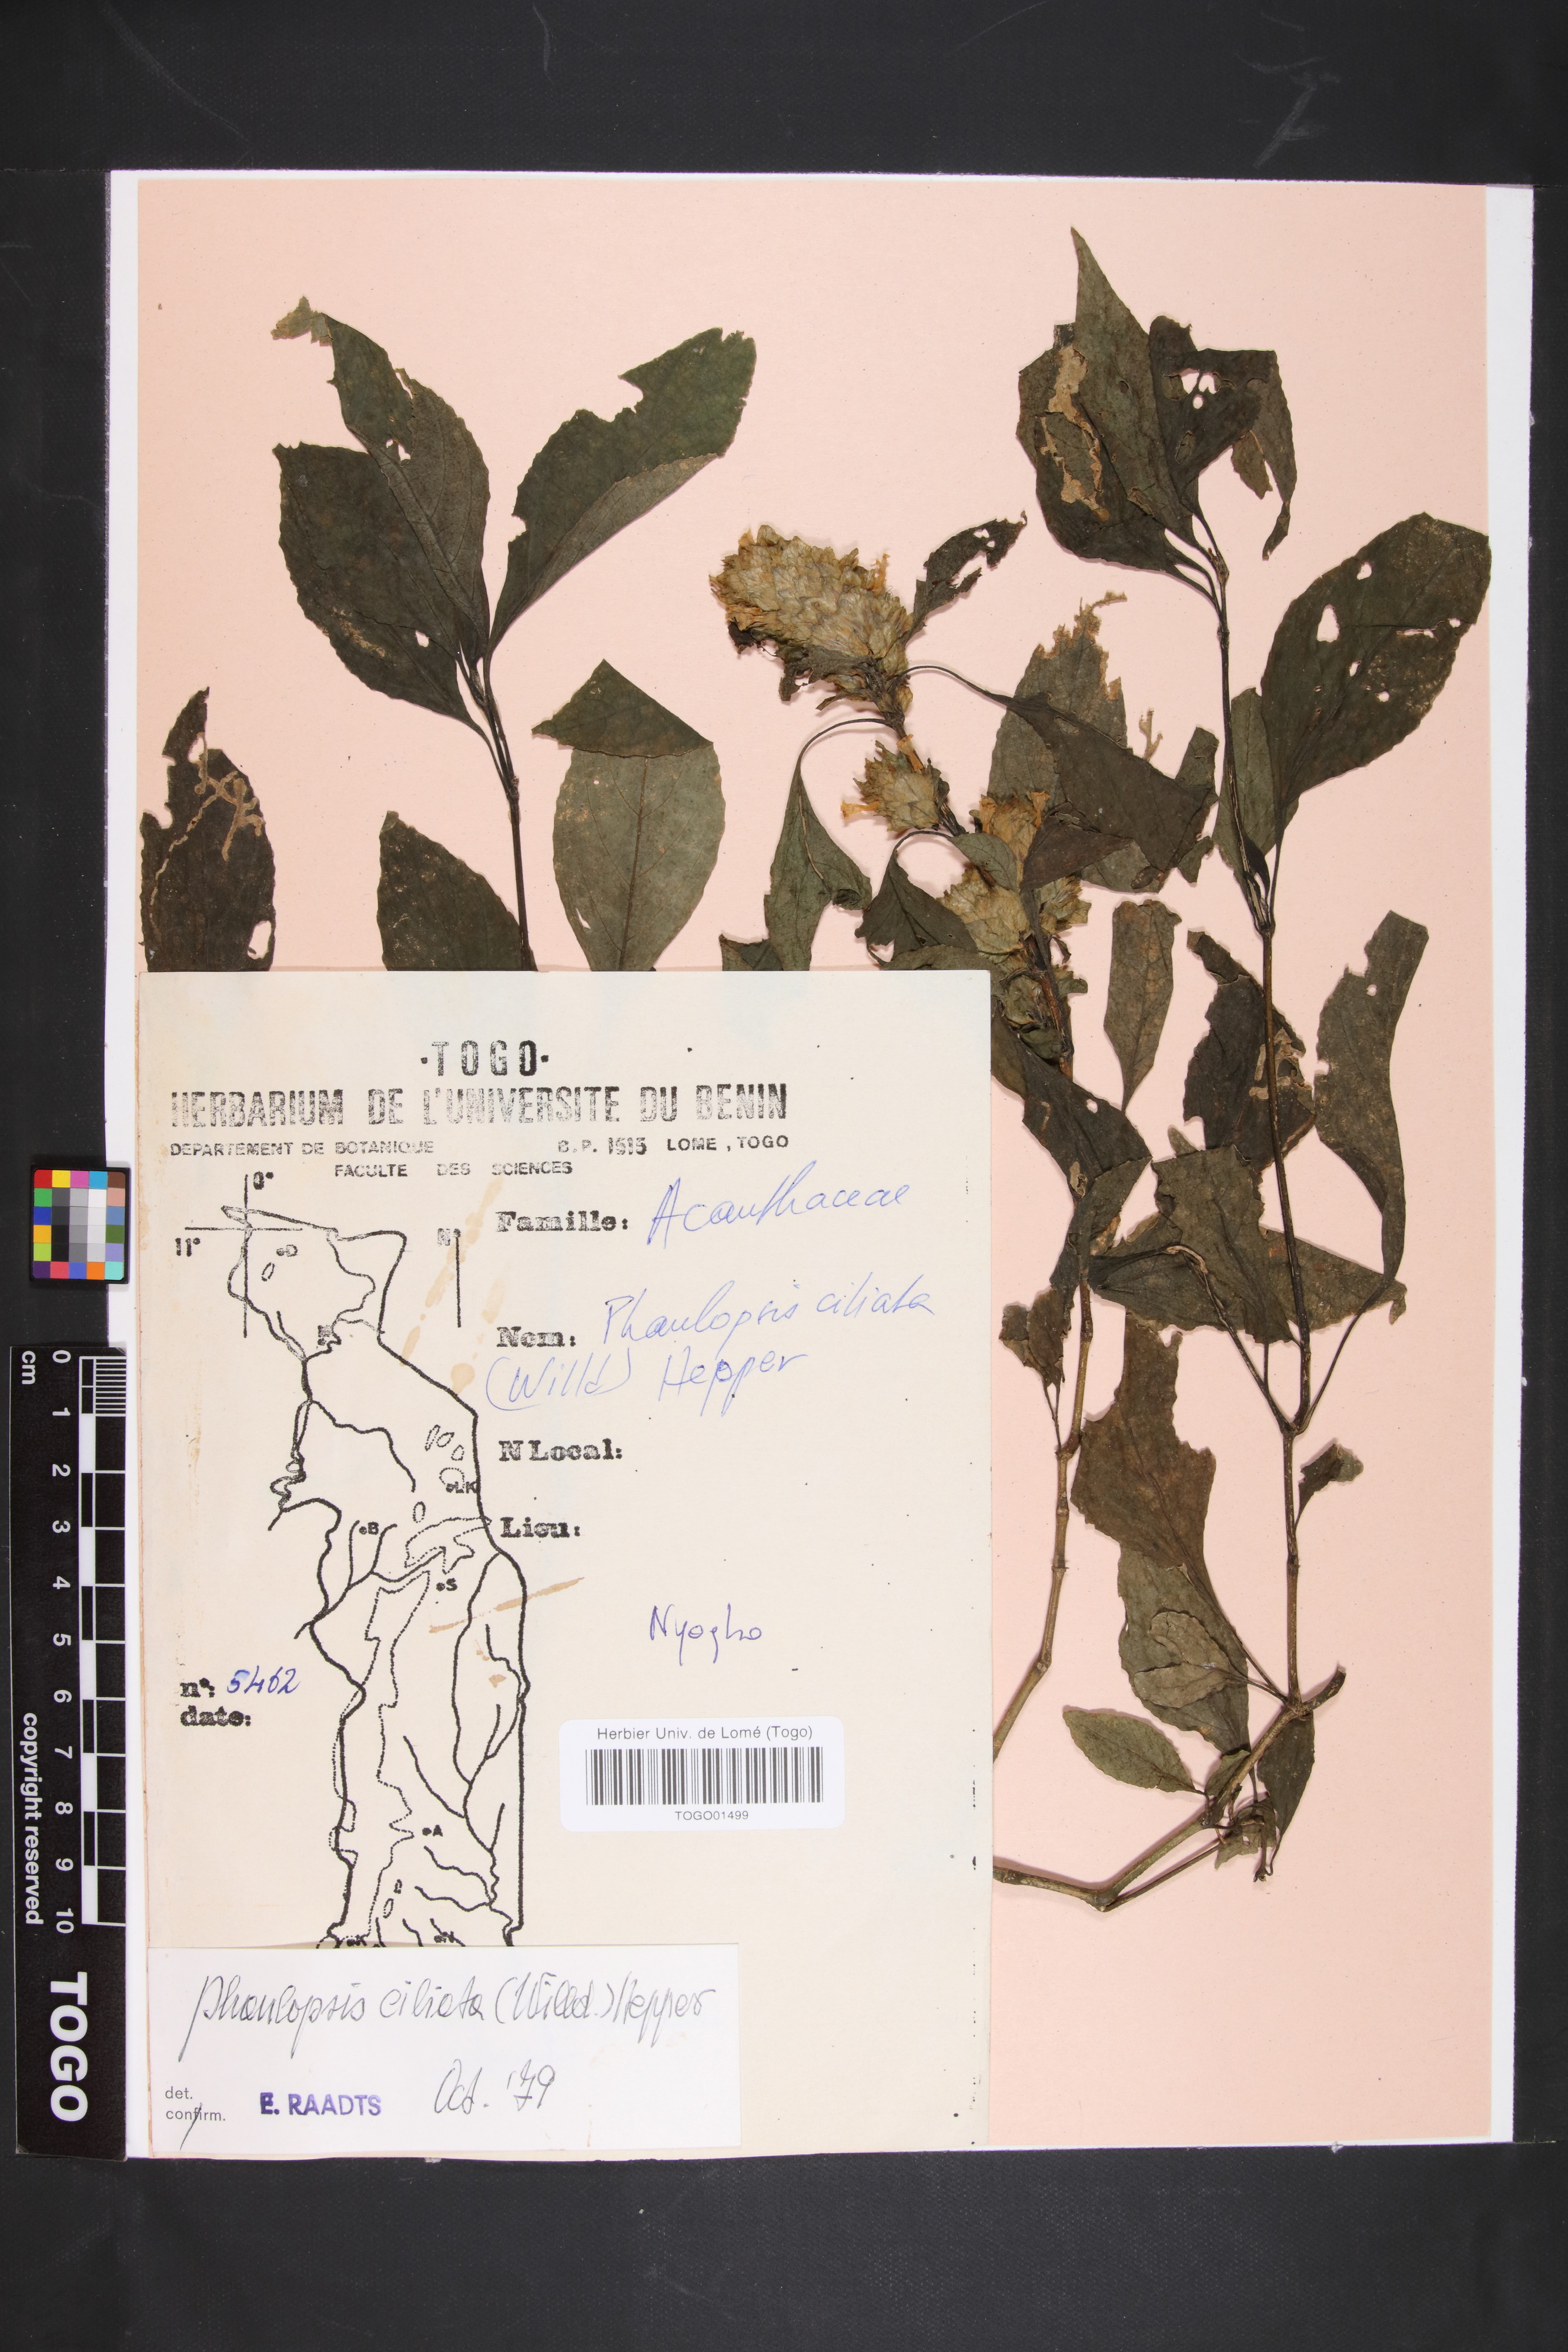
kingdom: Plantae
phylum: Tracheophyta
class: Magnoliopsida
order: Lamiales
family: Acanthaceae
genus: Phaulopsis
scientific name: Phaulopsis ciliata
